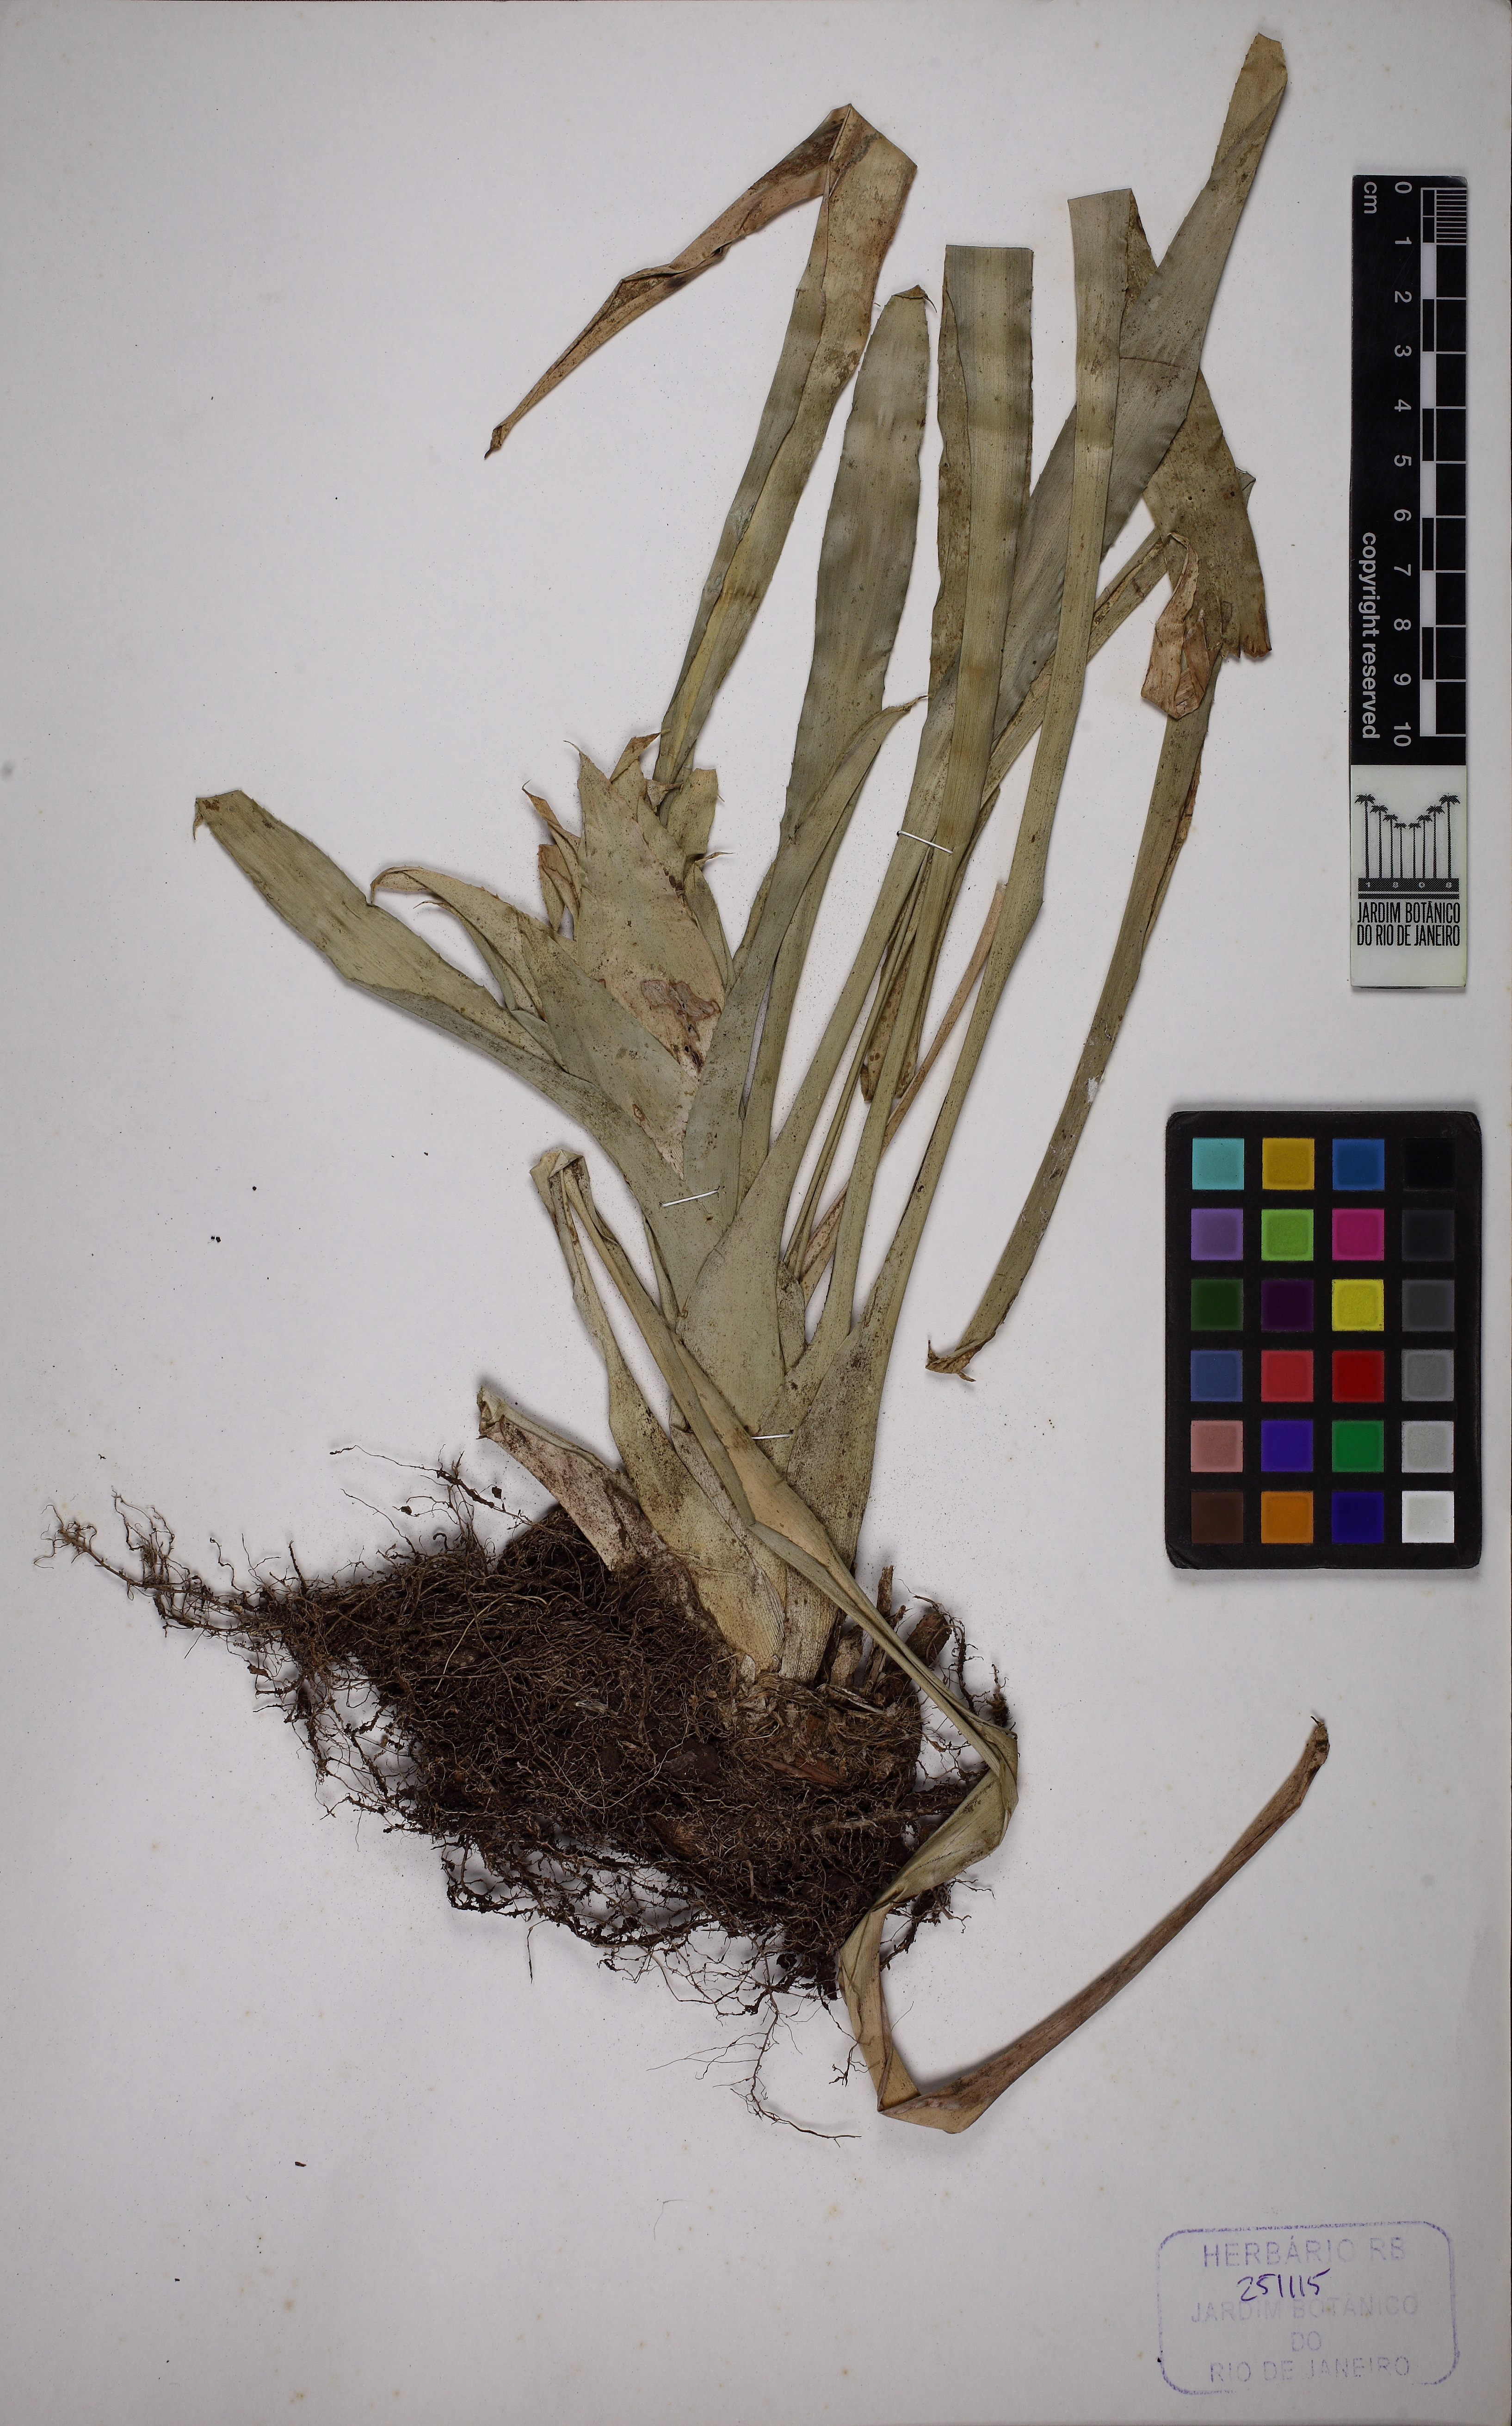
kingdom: Plantae
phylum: Tracheophyta
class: Liliopsida
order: Poales
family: Bromeliaceae
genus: Nidularium
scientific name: Nidularium scheremetiewii
